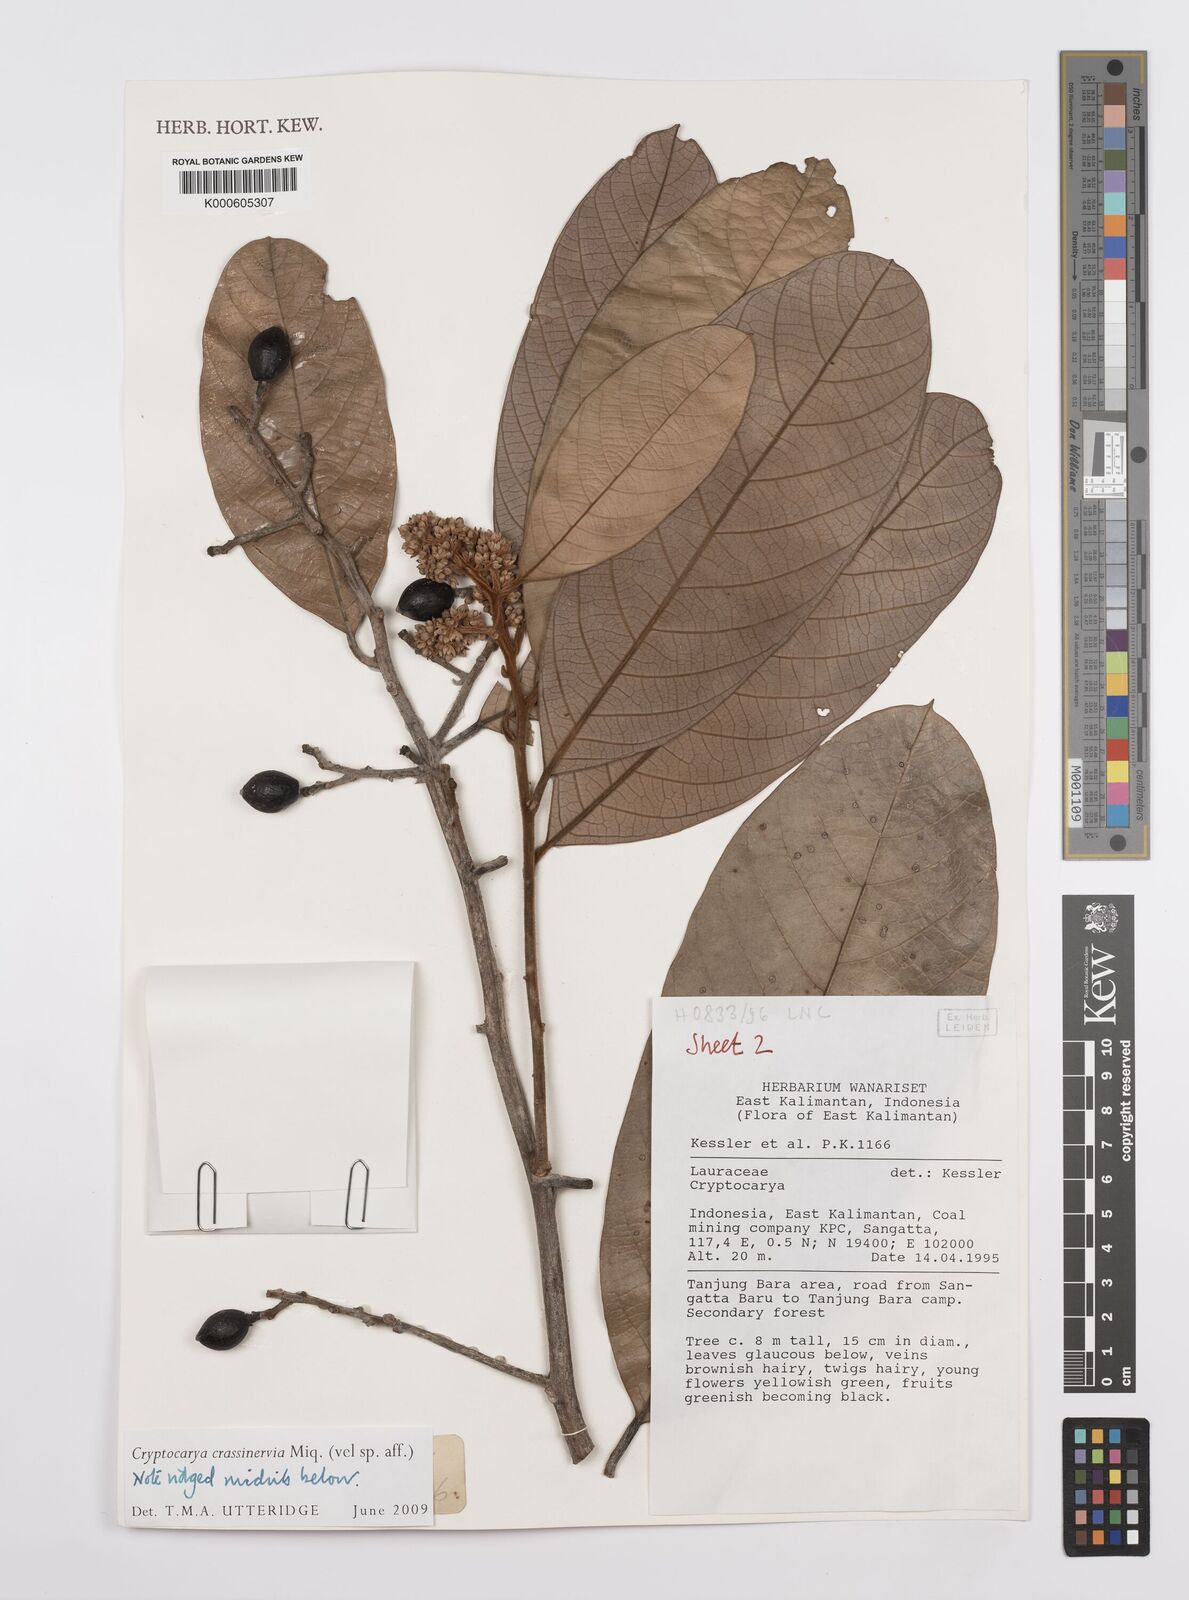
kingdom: Plantae
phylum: Tracheophyta
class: Magnoliopsida
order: Laurales
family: Lauraceae
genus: Cryptocarya
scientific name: Cryptocarya diversifolia
